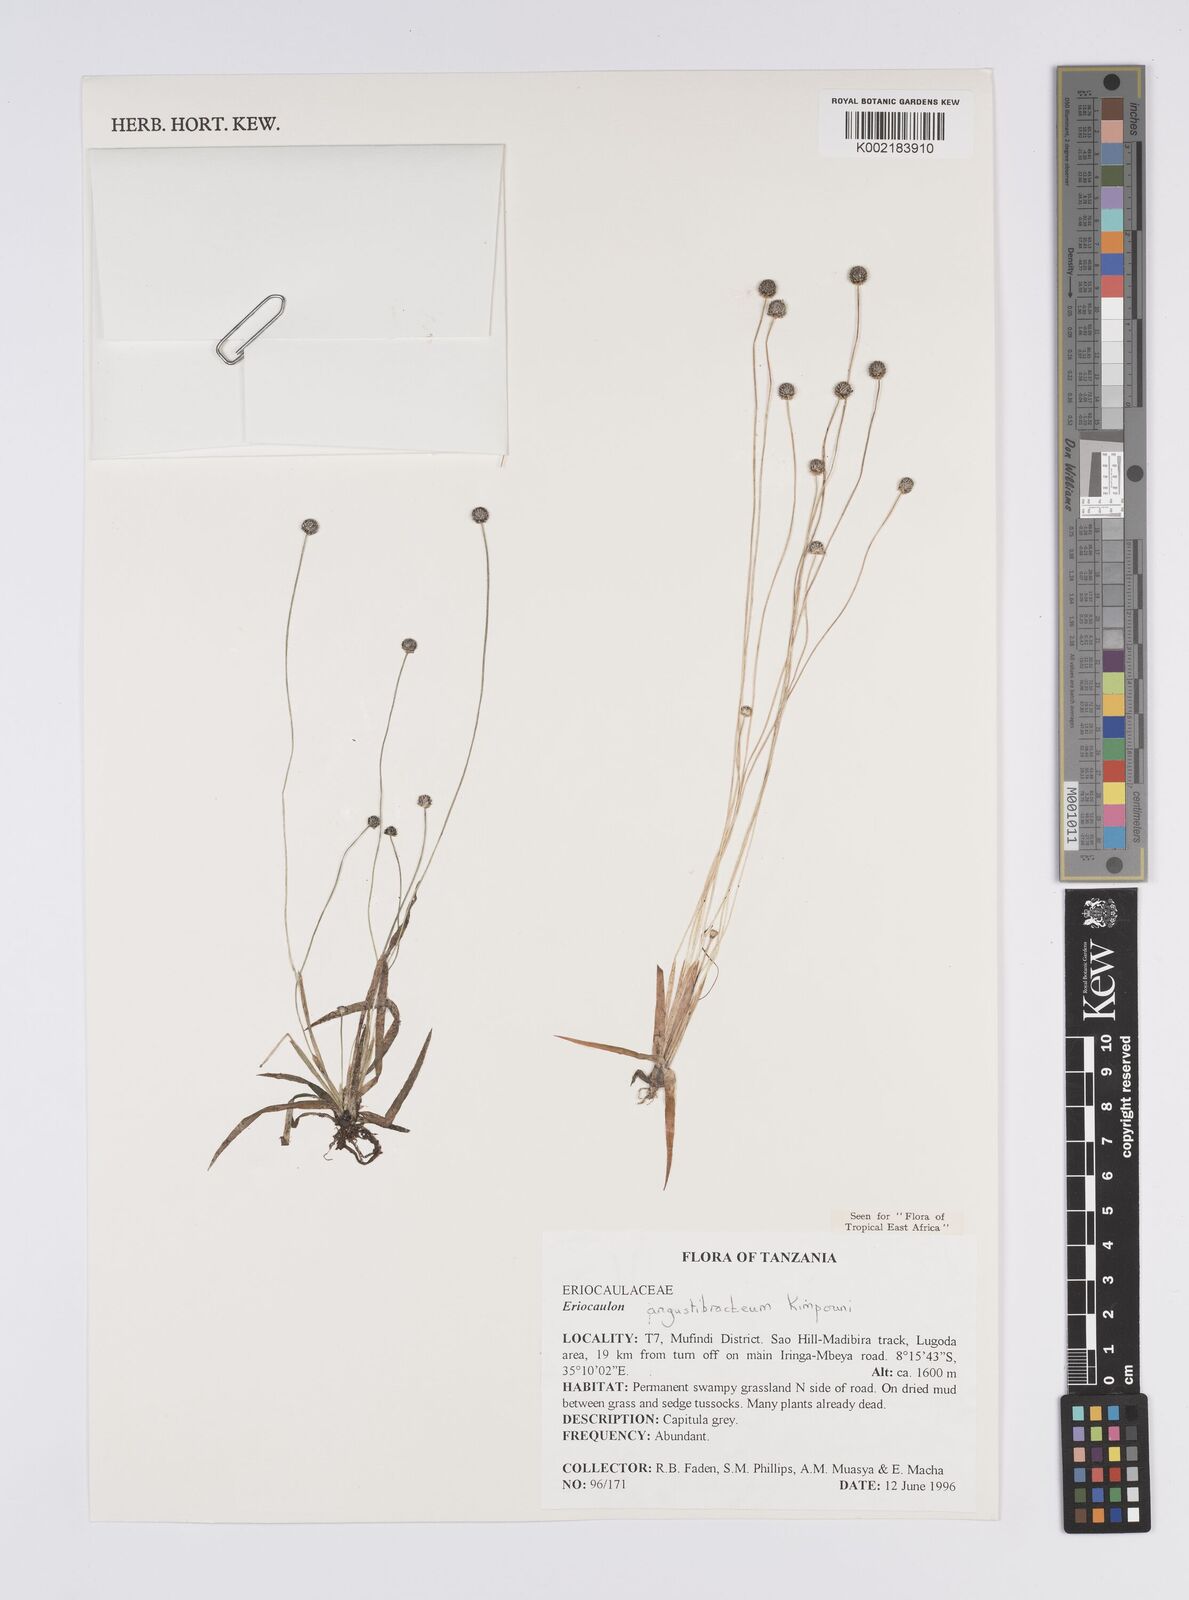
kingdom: Plantae
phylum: Tracheophyta
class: Liliopsida
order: Poales
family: Eriocaulaceae
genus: Eriocaulon
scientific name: Eriocaulon angustibracteum
